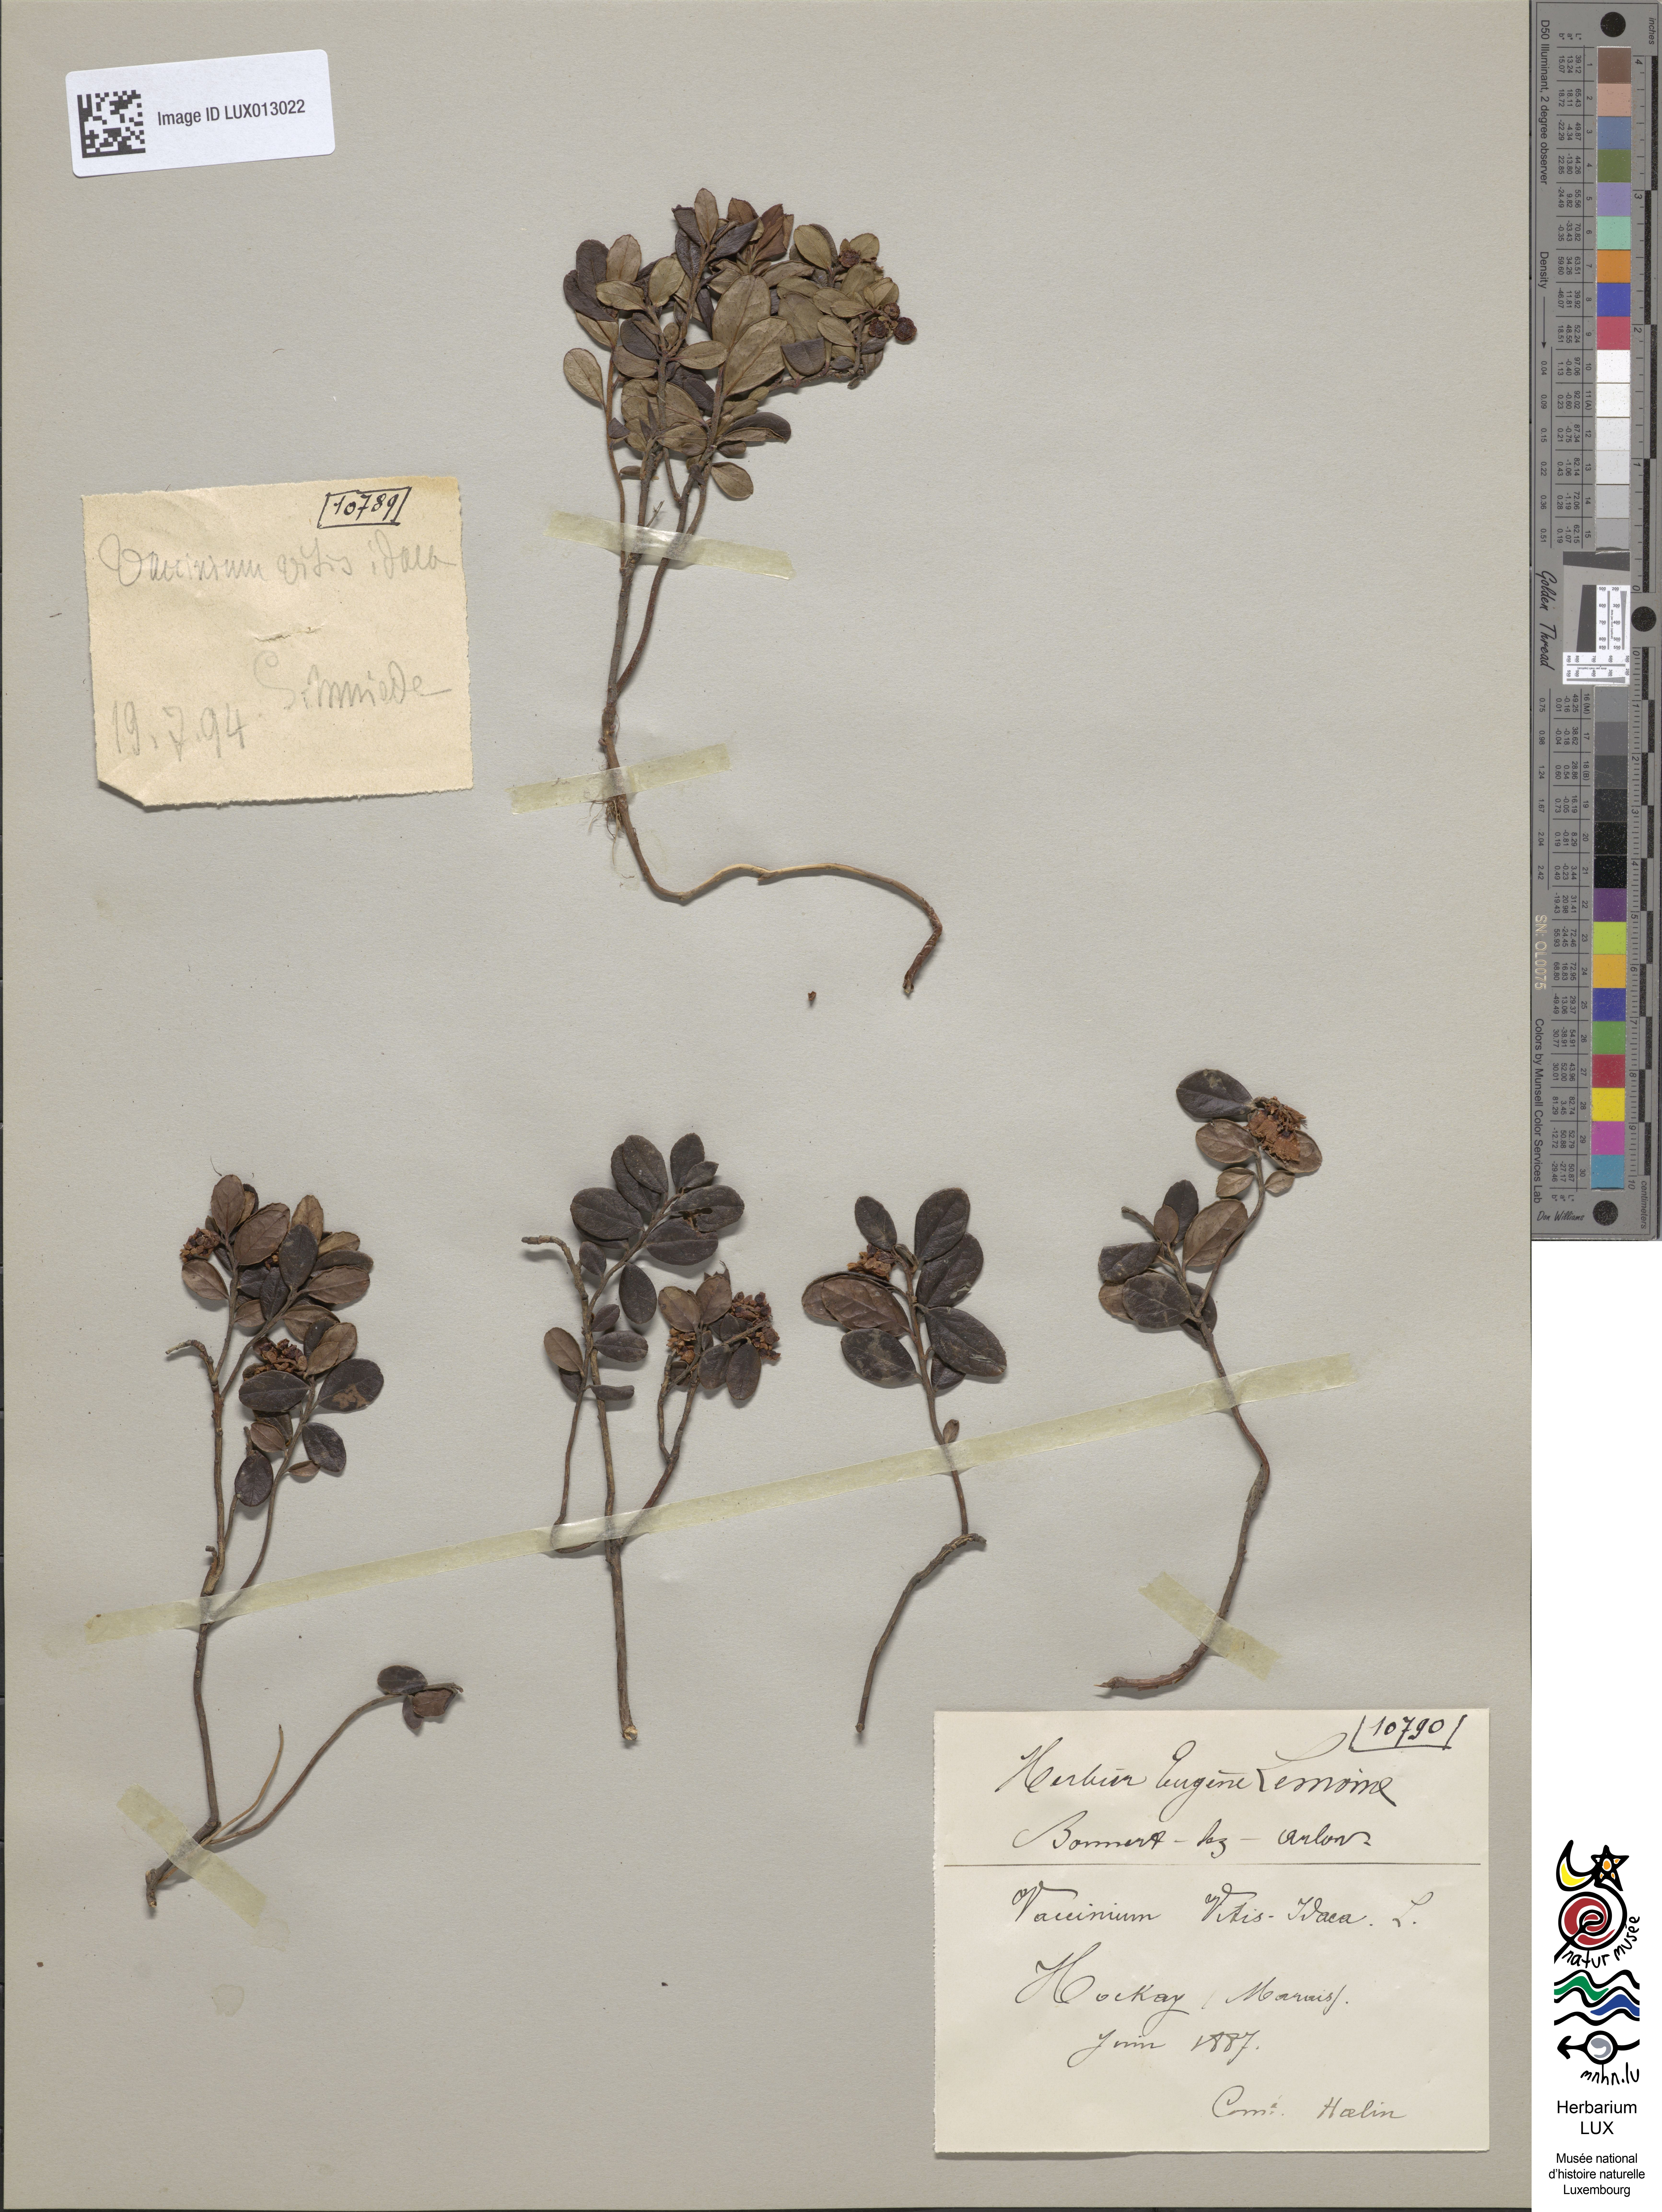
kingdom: Plantae
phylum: Tracheophyta
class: Magnoliopsida
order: Ericales
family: Ericaceae
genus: Vaccinium
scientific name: Vaccinium vitis-idaea
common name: Cowberry
